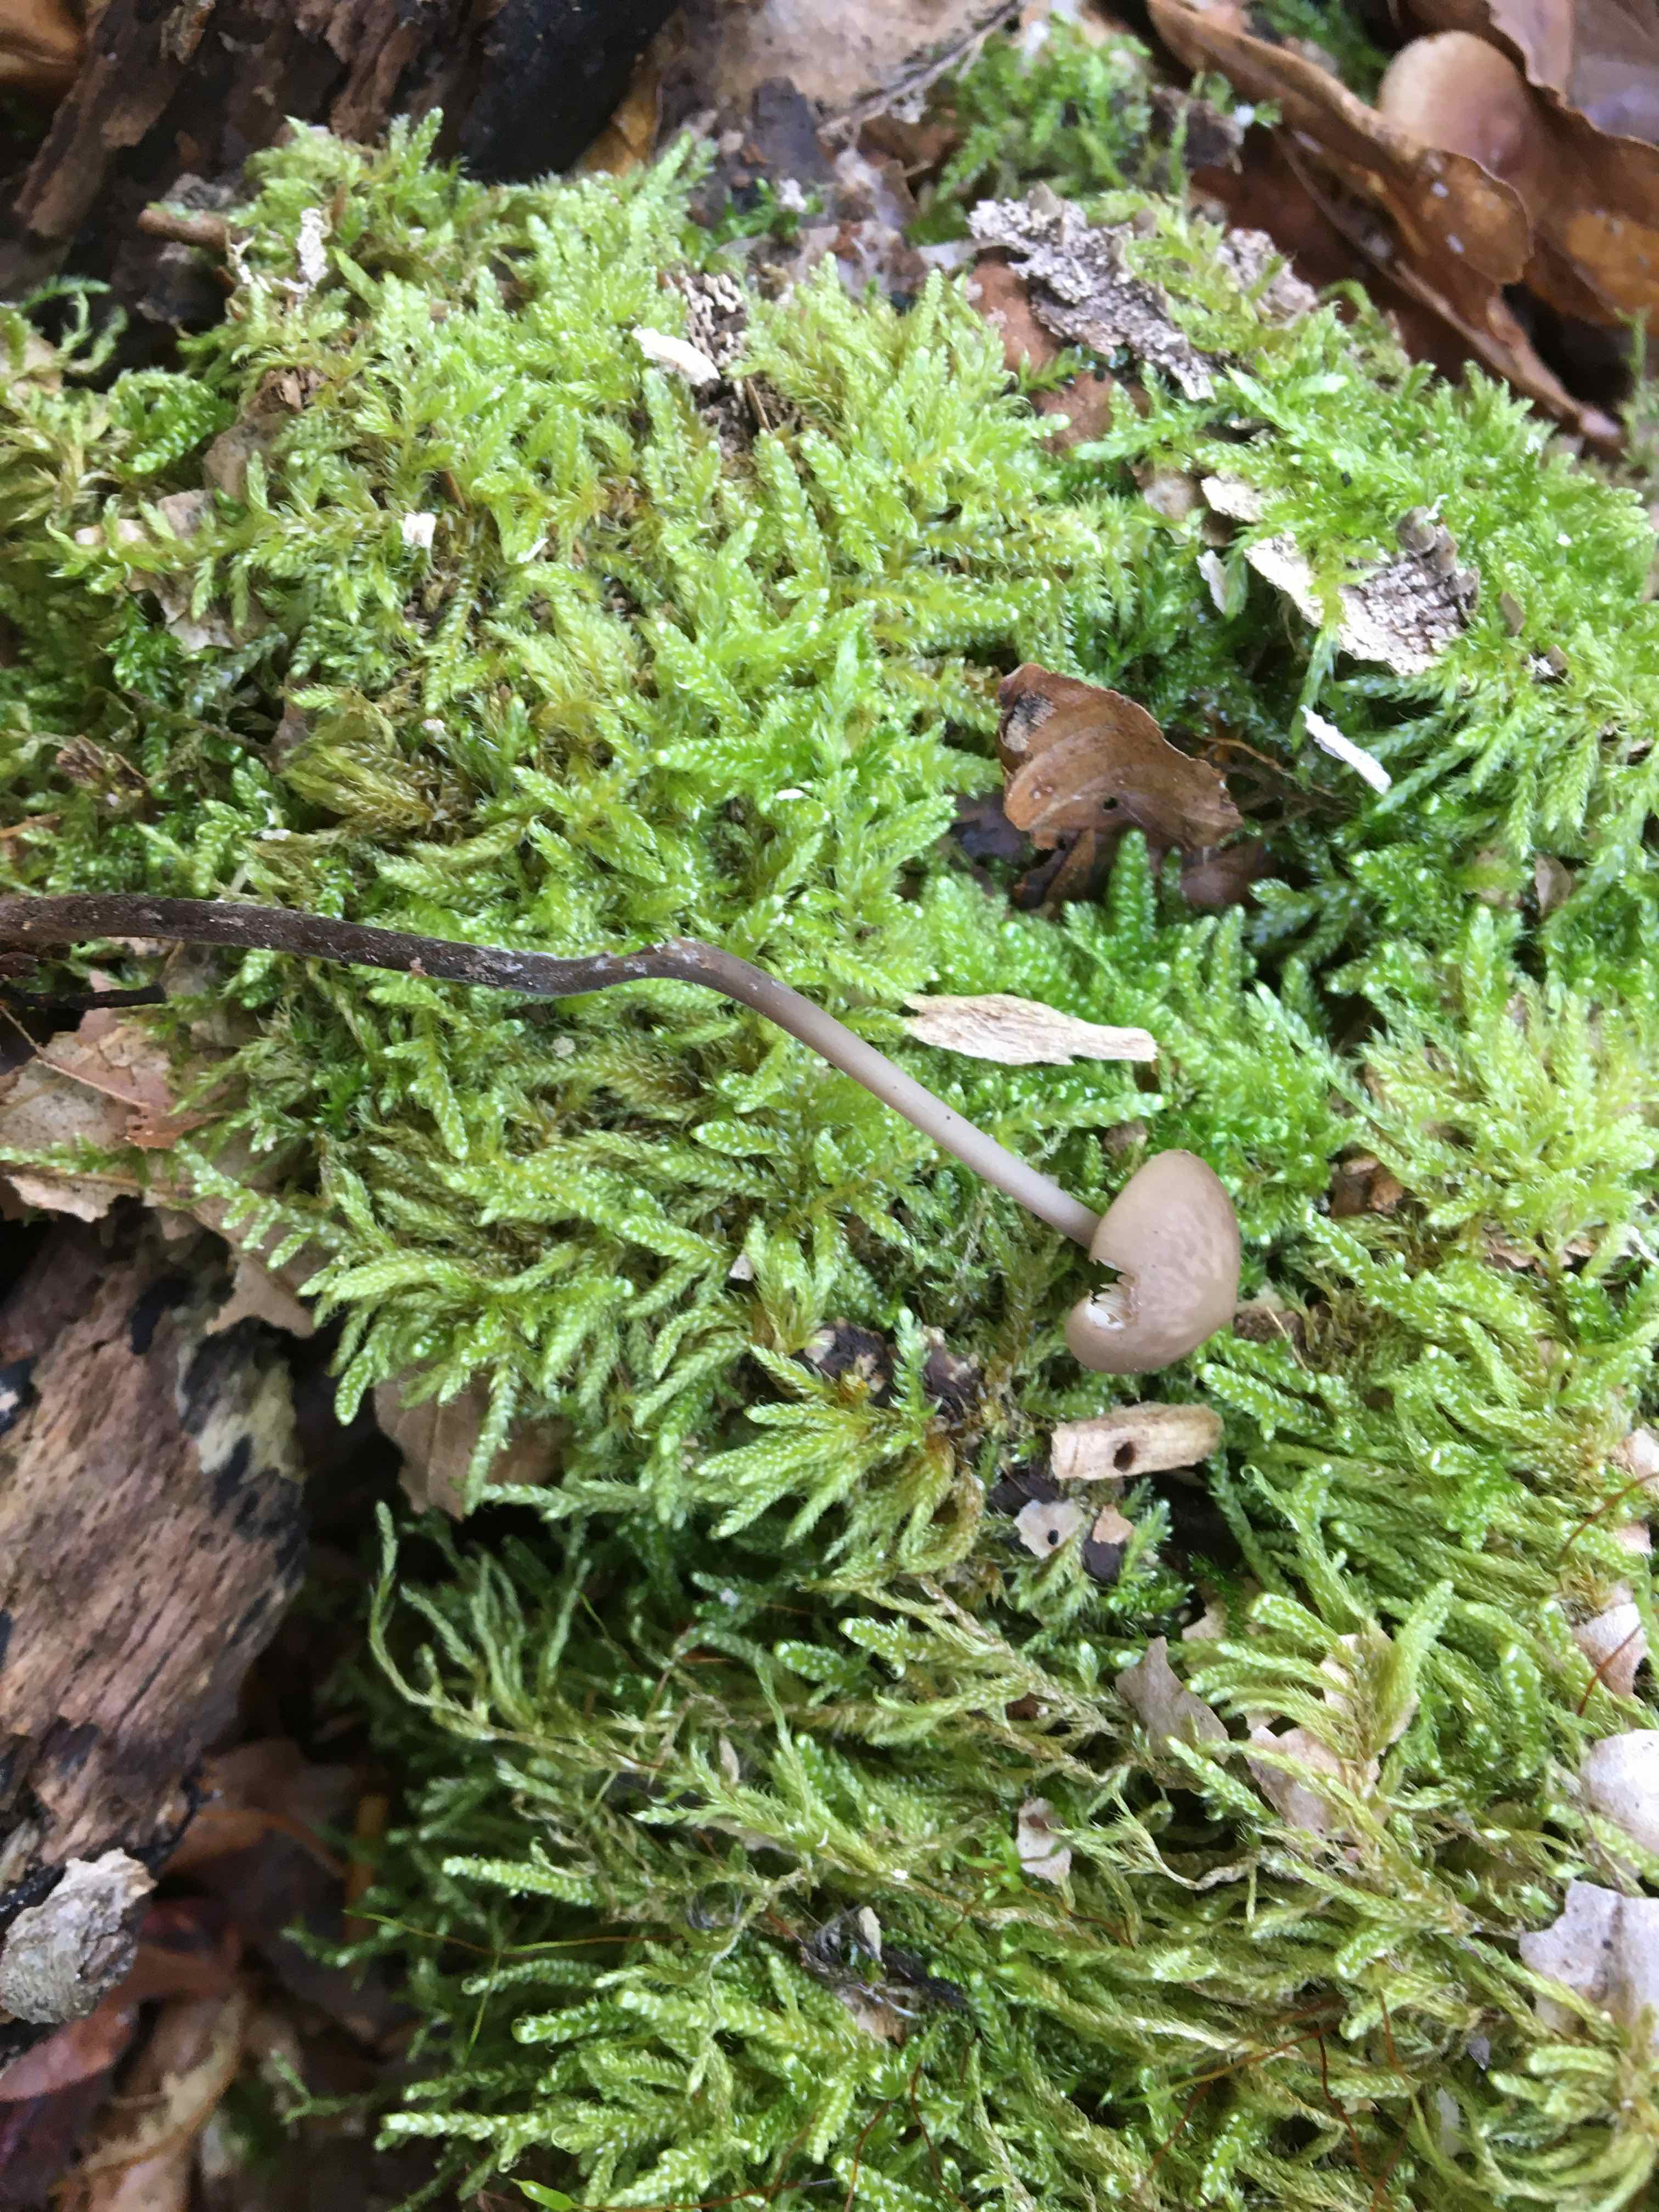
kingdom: Fungi
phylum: Basidiomycota
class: Agaricomycetes
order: Agaricales
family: Omphalotaceae
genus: Mycetinis
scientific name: Mycetinis alliaceus
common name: stor løghat
